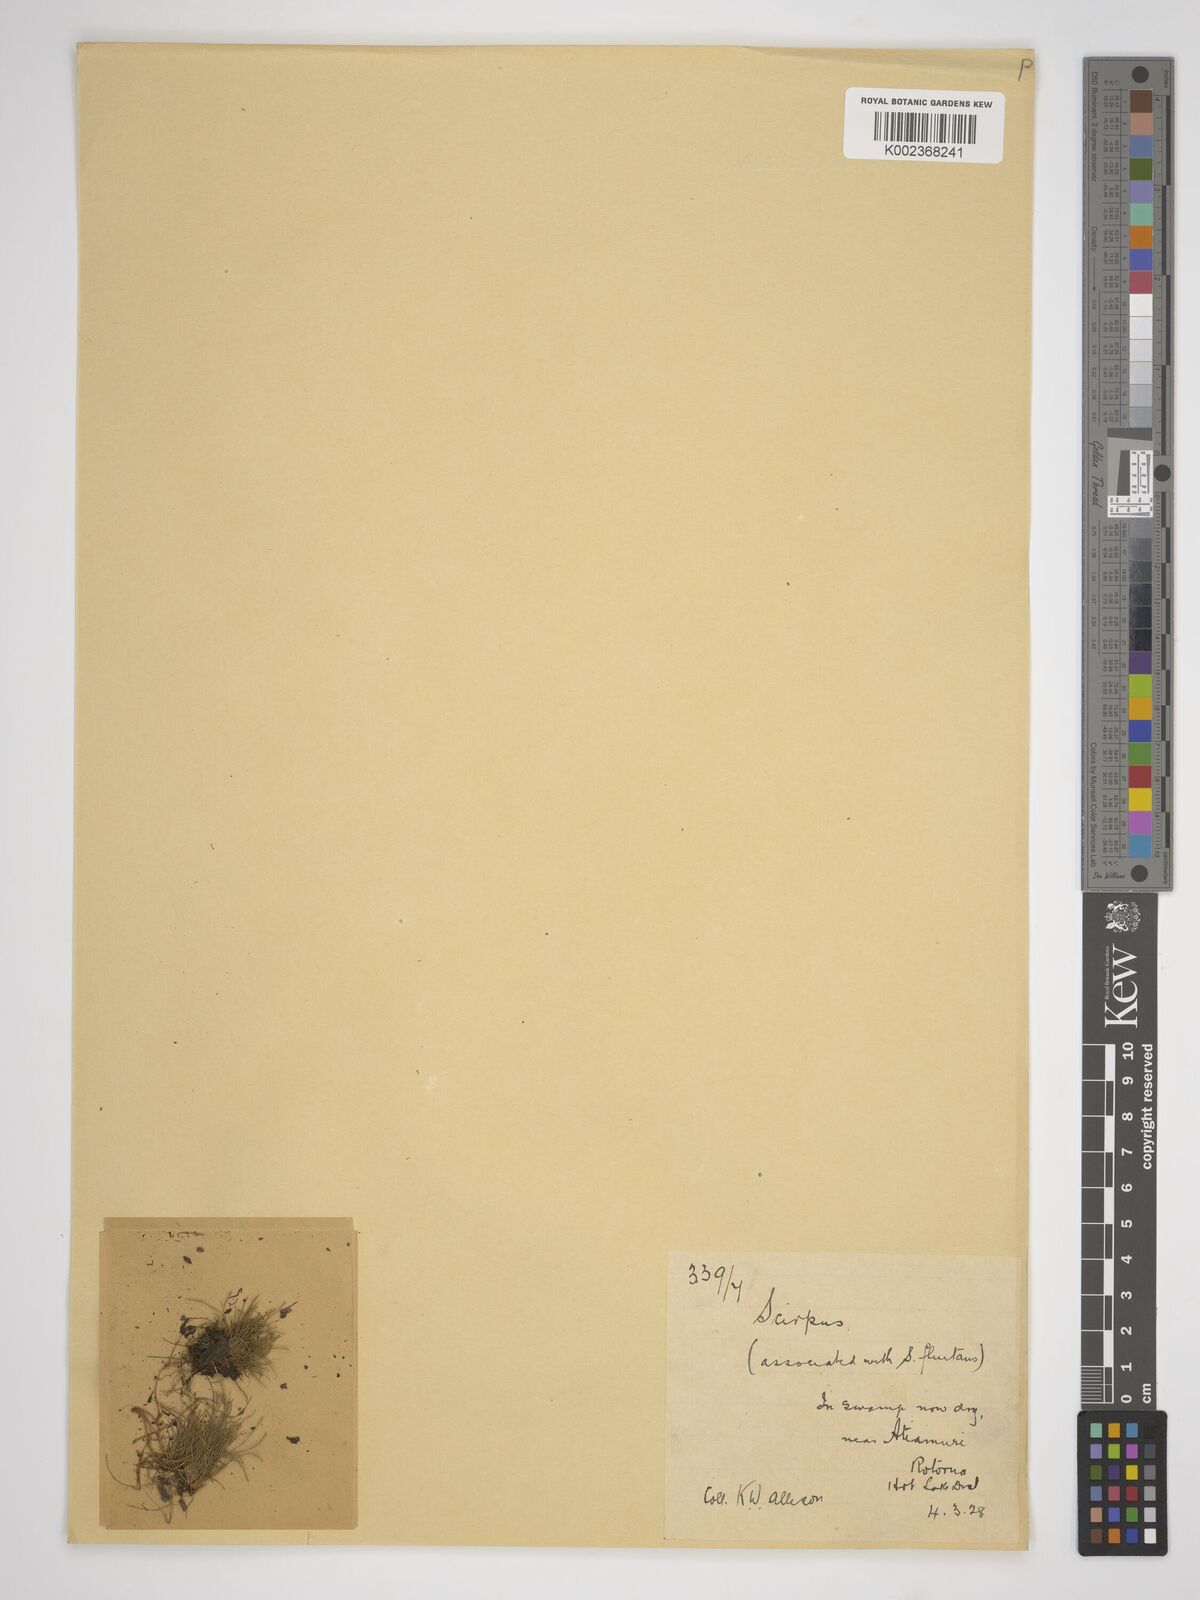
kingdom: Plantae
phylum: Tracheophyta
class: Liliopsida
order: Poales
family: Cyperaceae
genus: Isolepis
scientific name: Isolepis fluitans
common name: Floating club-rush
